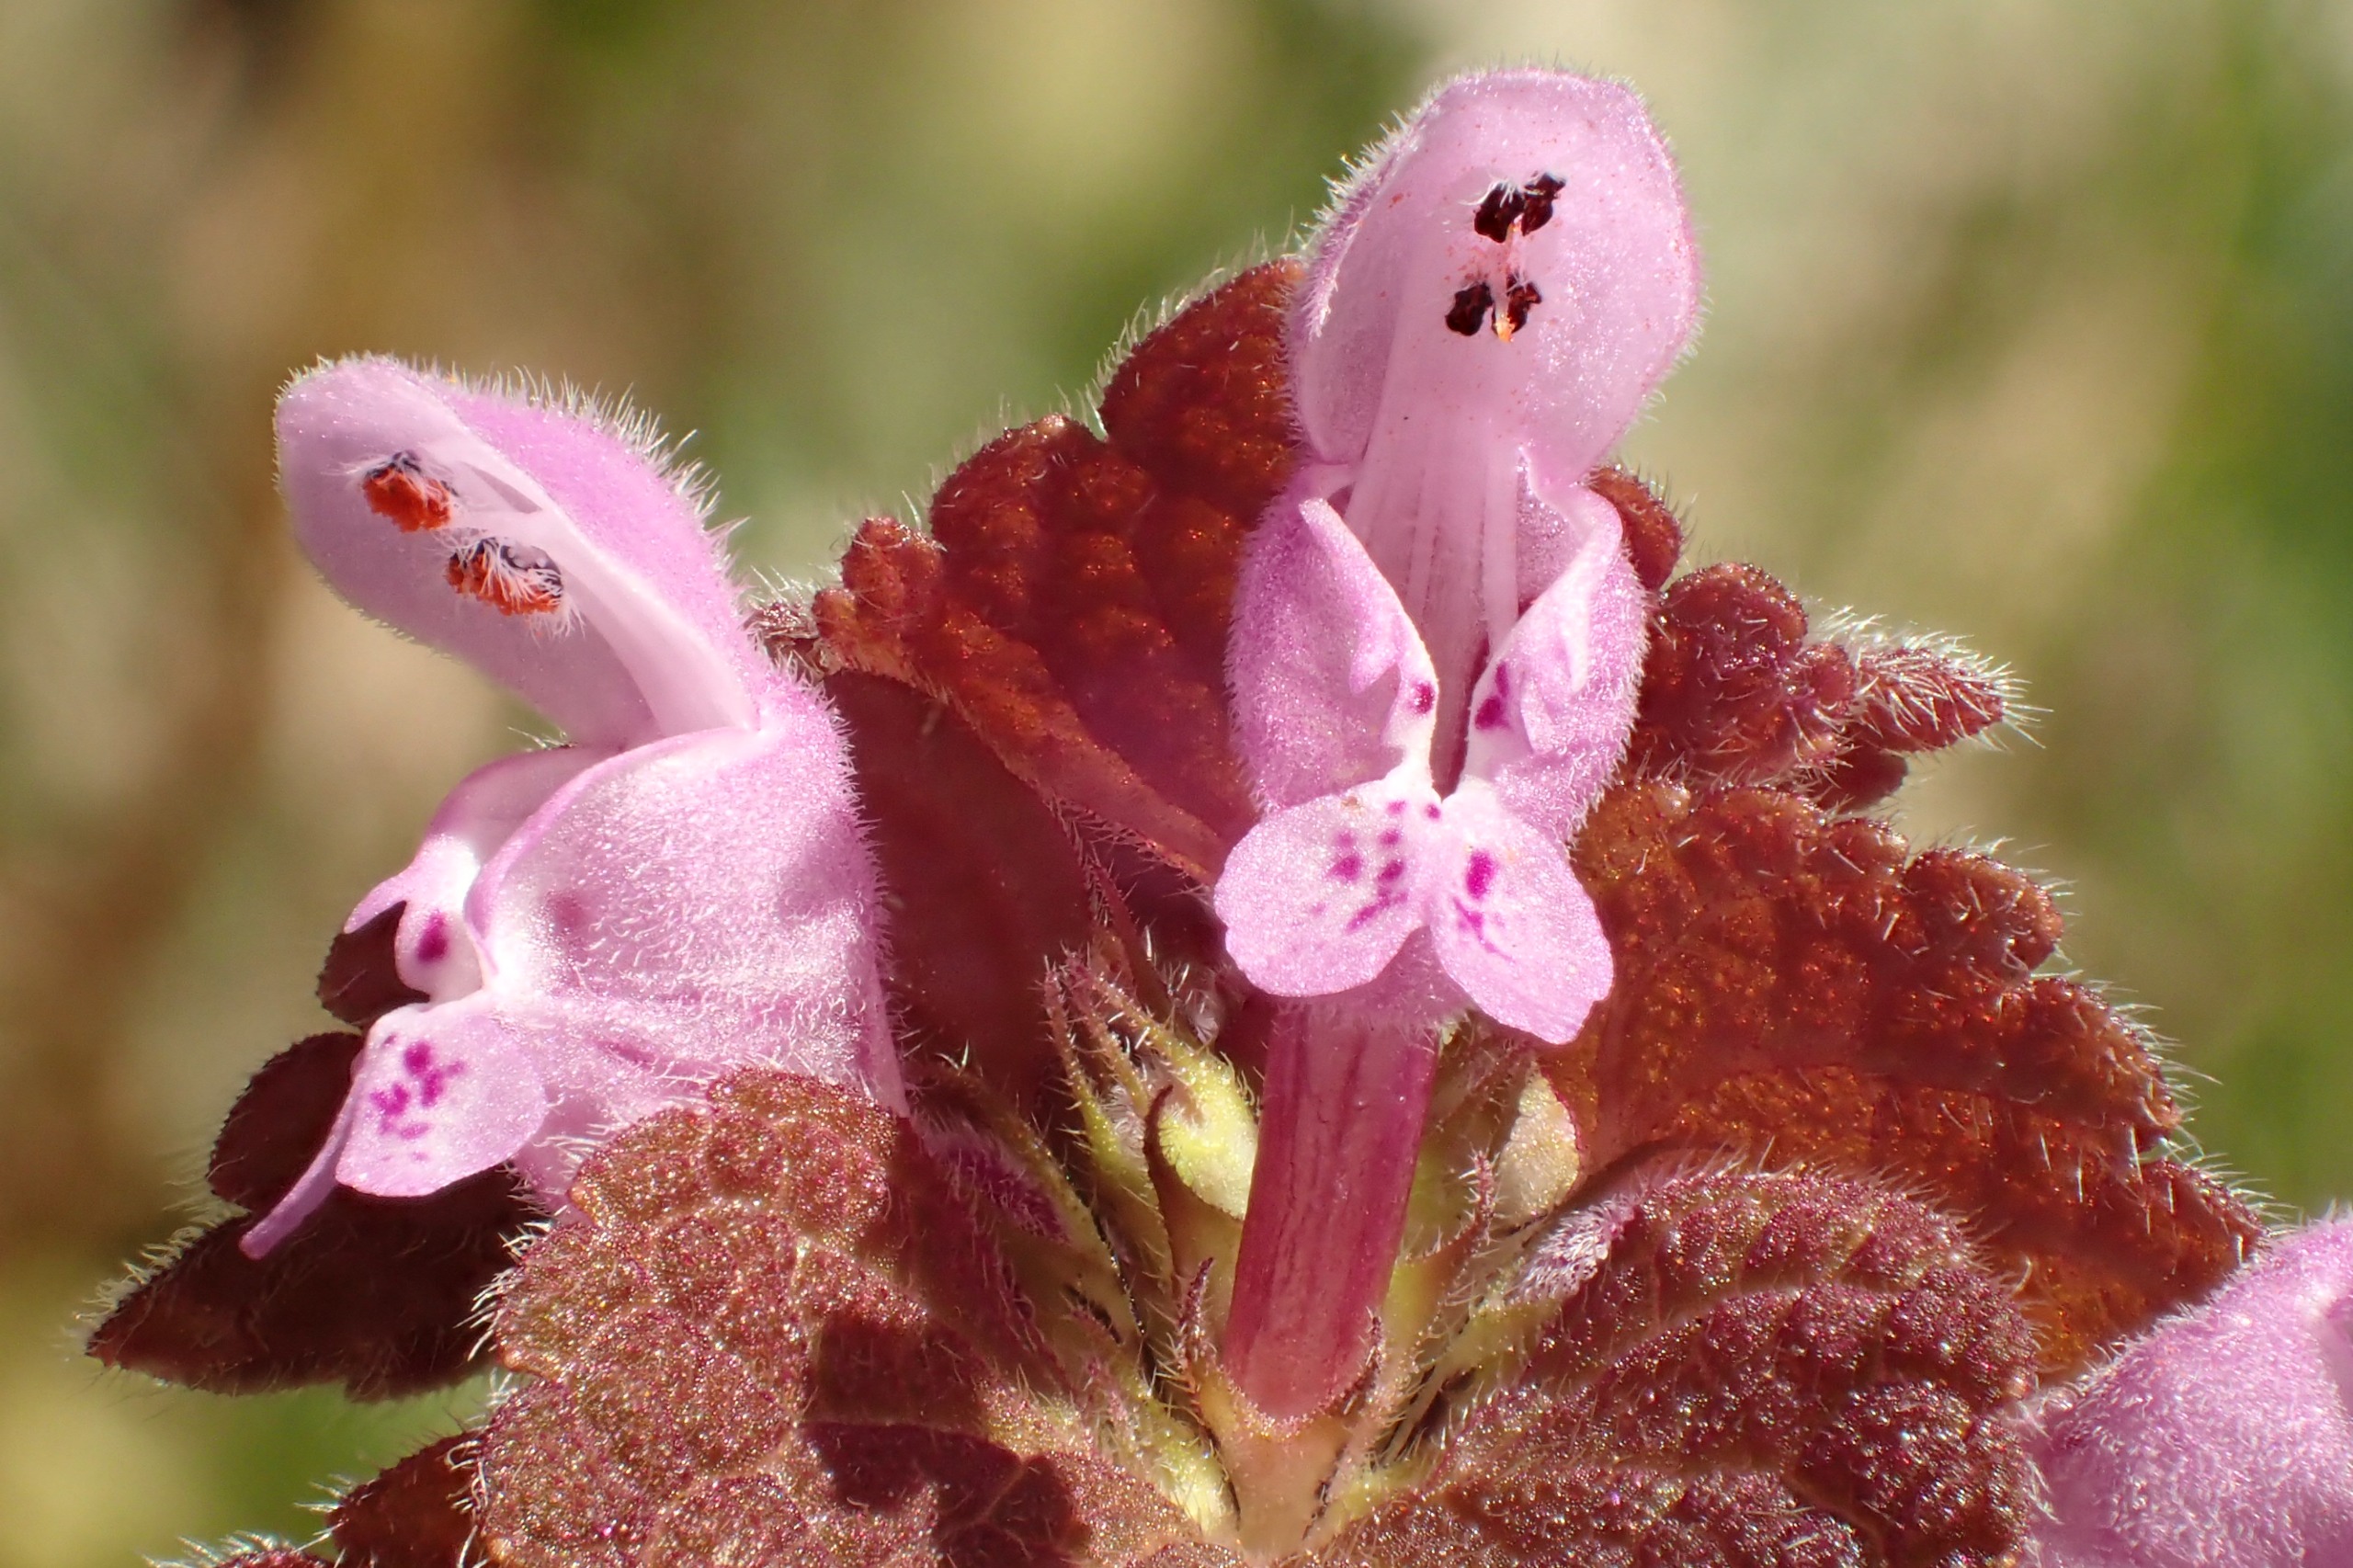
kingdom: Plantae
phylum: Tracheophyta
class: Magnoliopsida
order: Lamiales
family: Lamiaceae
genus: Lamium
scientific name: Lamium purpureum
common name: Rød tvetand
